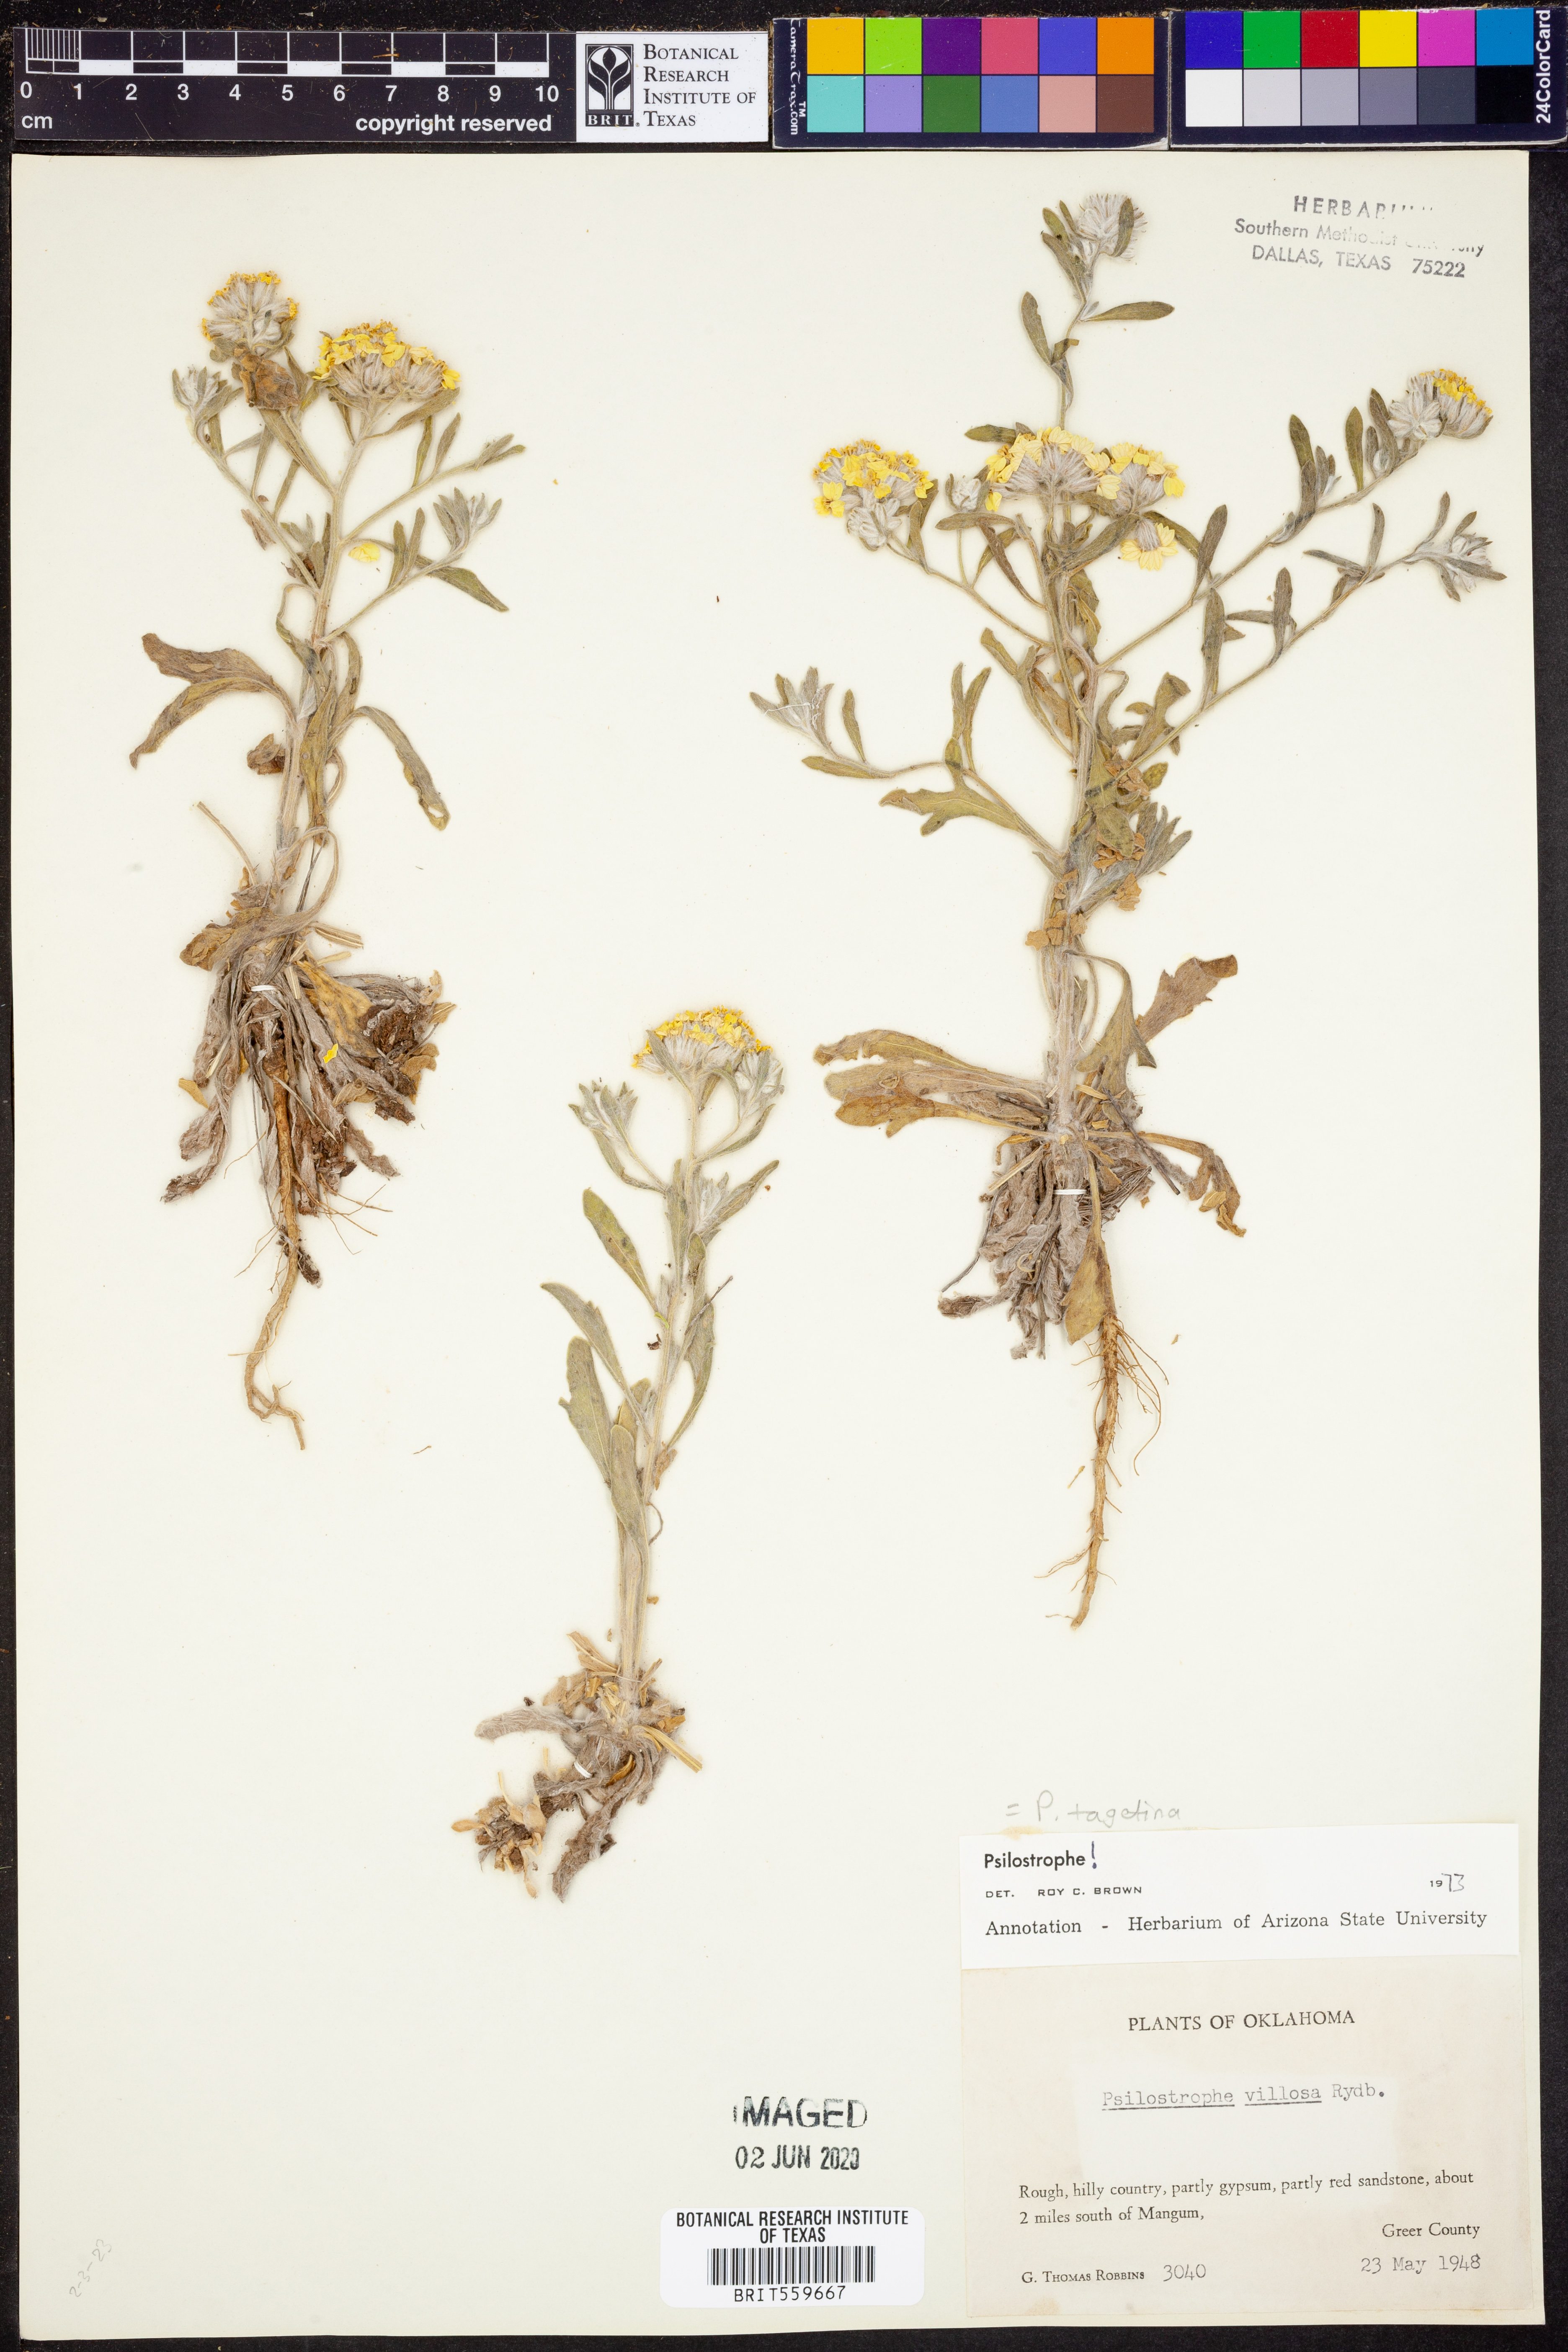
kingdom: Plantae
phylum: Tracheophyta
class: Magnoliopsida
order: Asterales
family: Asteraceae
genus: Psilostrophe
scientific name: Psilostrophe villosa
